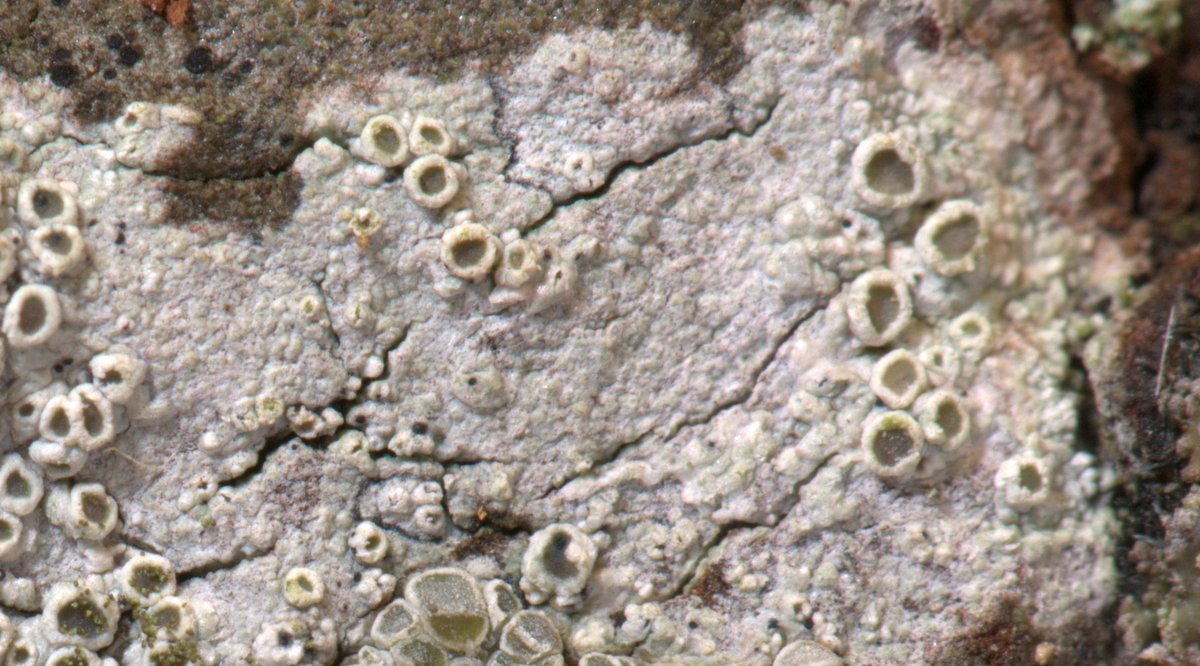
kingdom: Fungi
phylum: Ascomycota
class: Lecanoromycetes
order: Lecanorales
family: Lecanoraceae
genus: Lecanora
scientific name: Lecanora chlarotera
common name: brun kantskivelav
